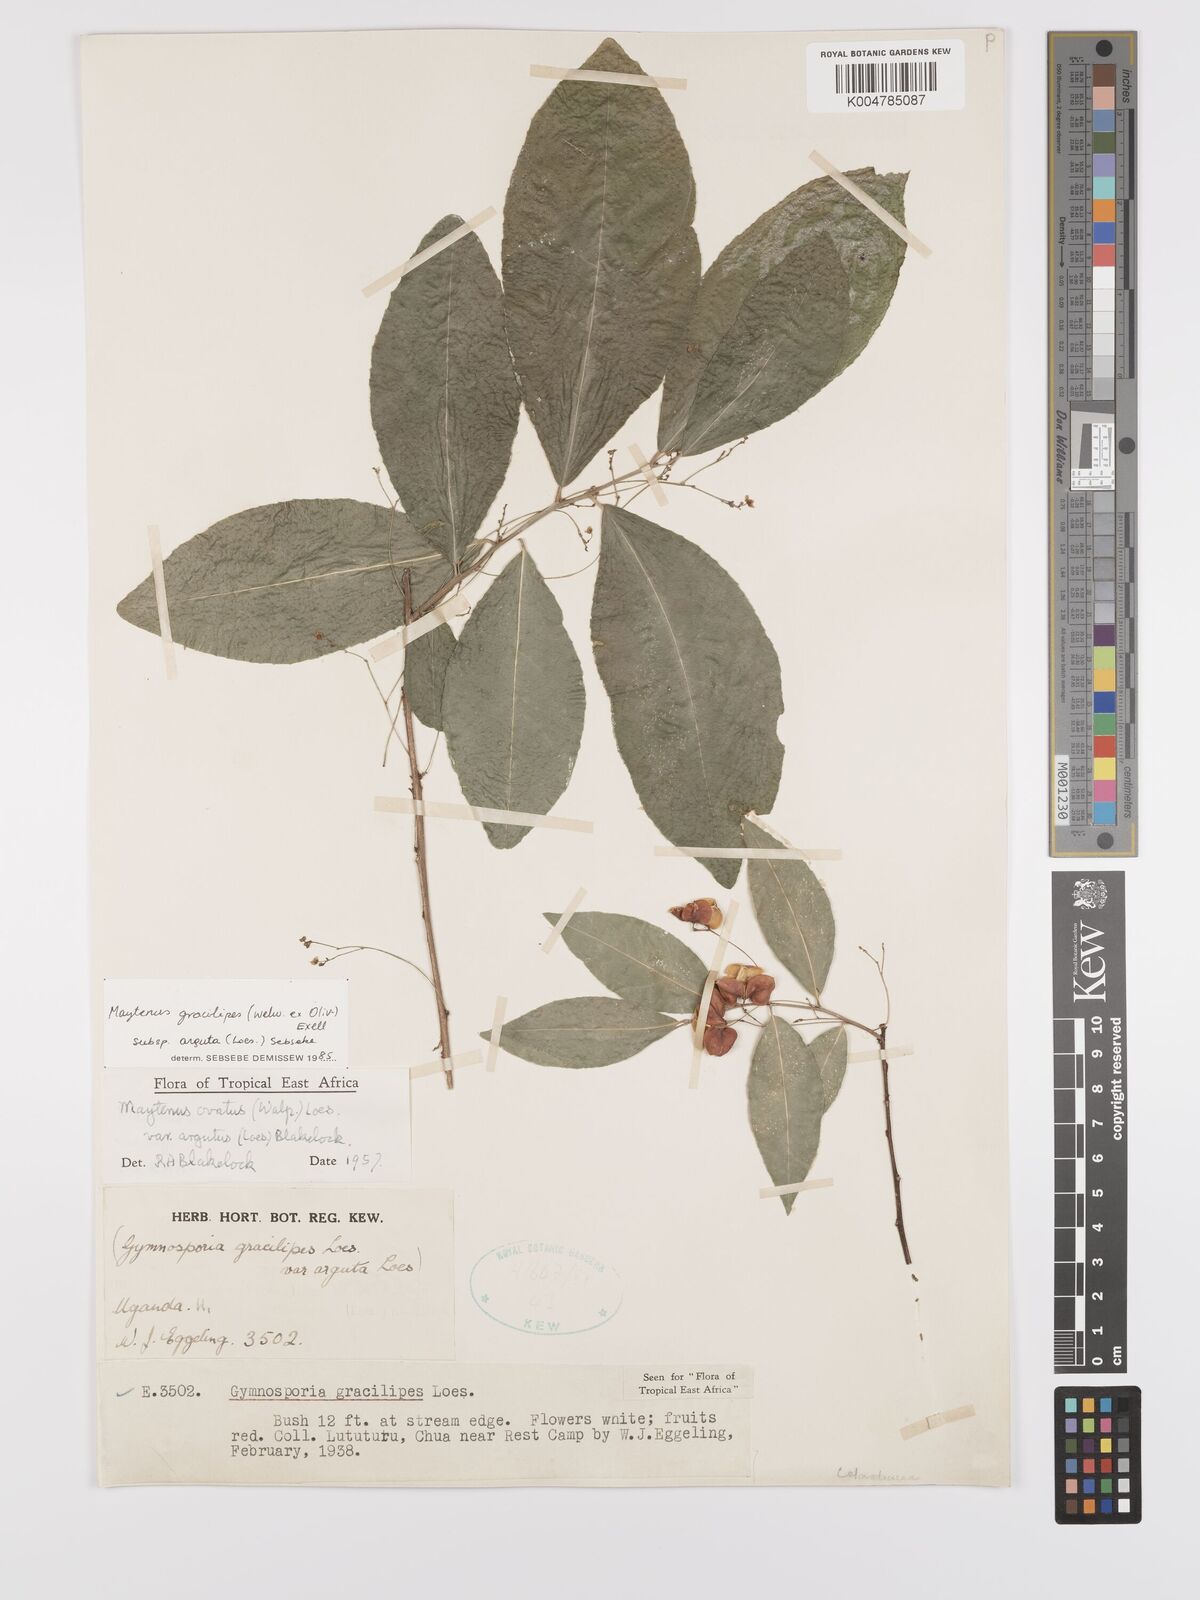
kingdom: Plantae
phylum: Tracheophyta
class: Magnoliopsida
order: Celastrales
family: Celastraceae
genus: Gymnosporia
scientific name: Gymnosporia gracilipes
